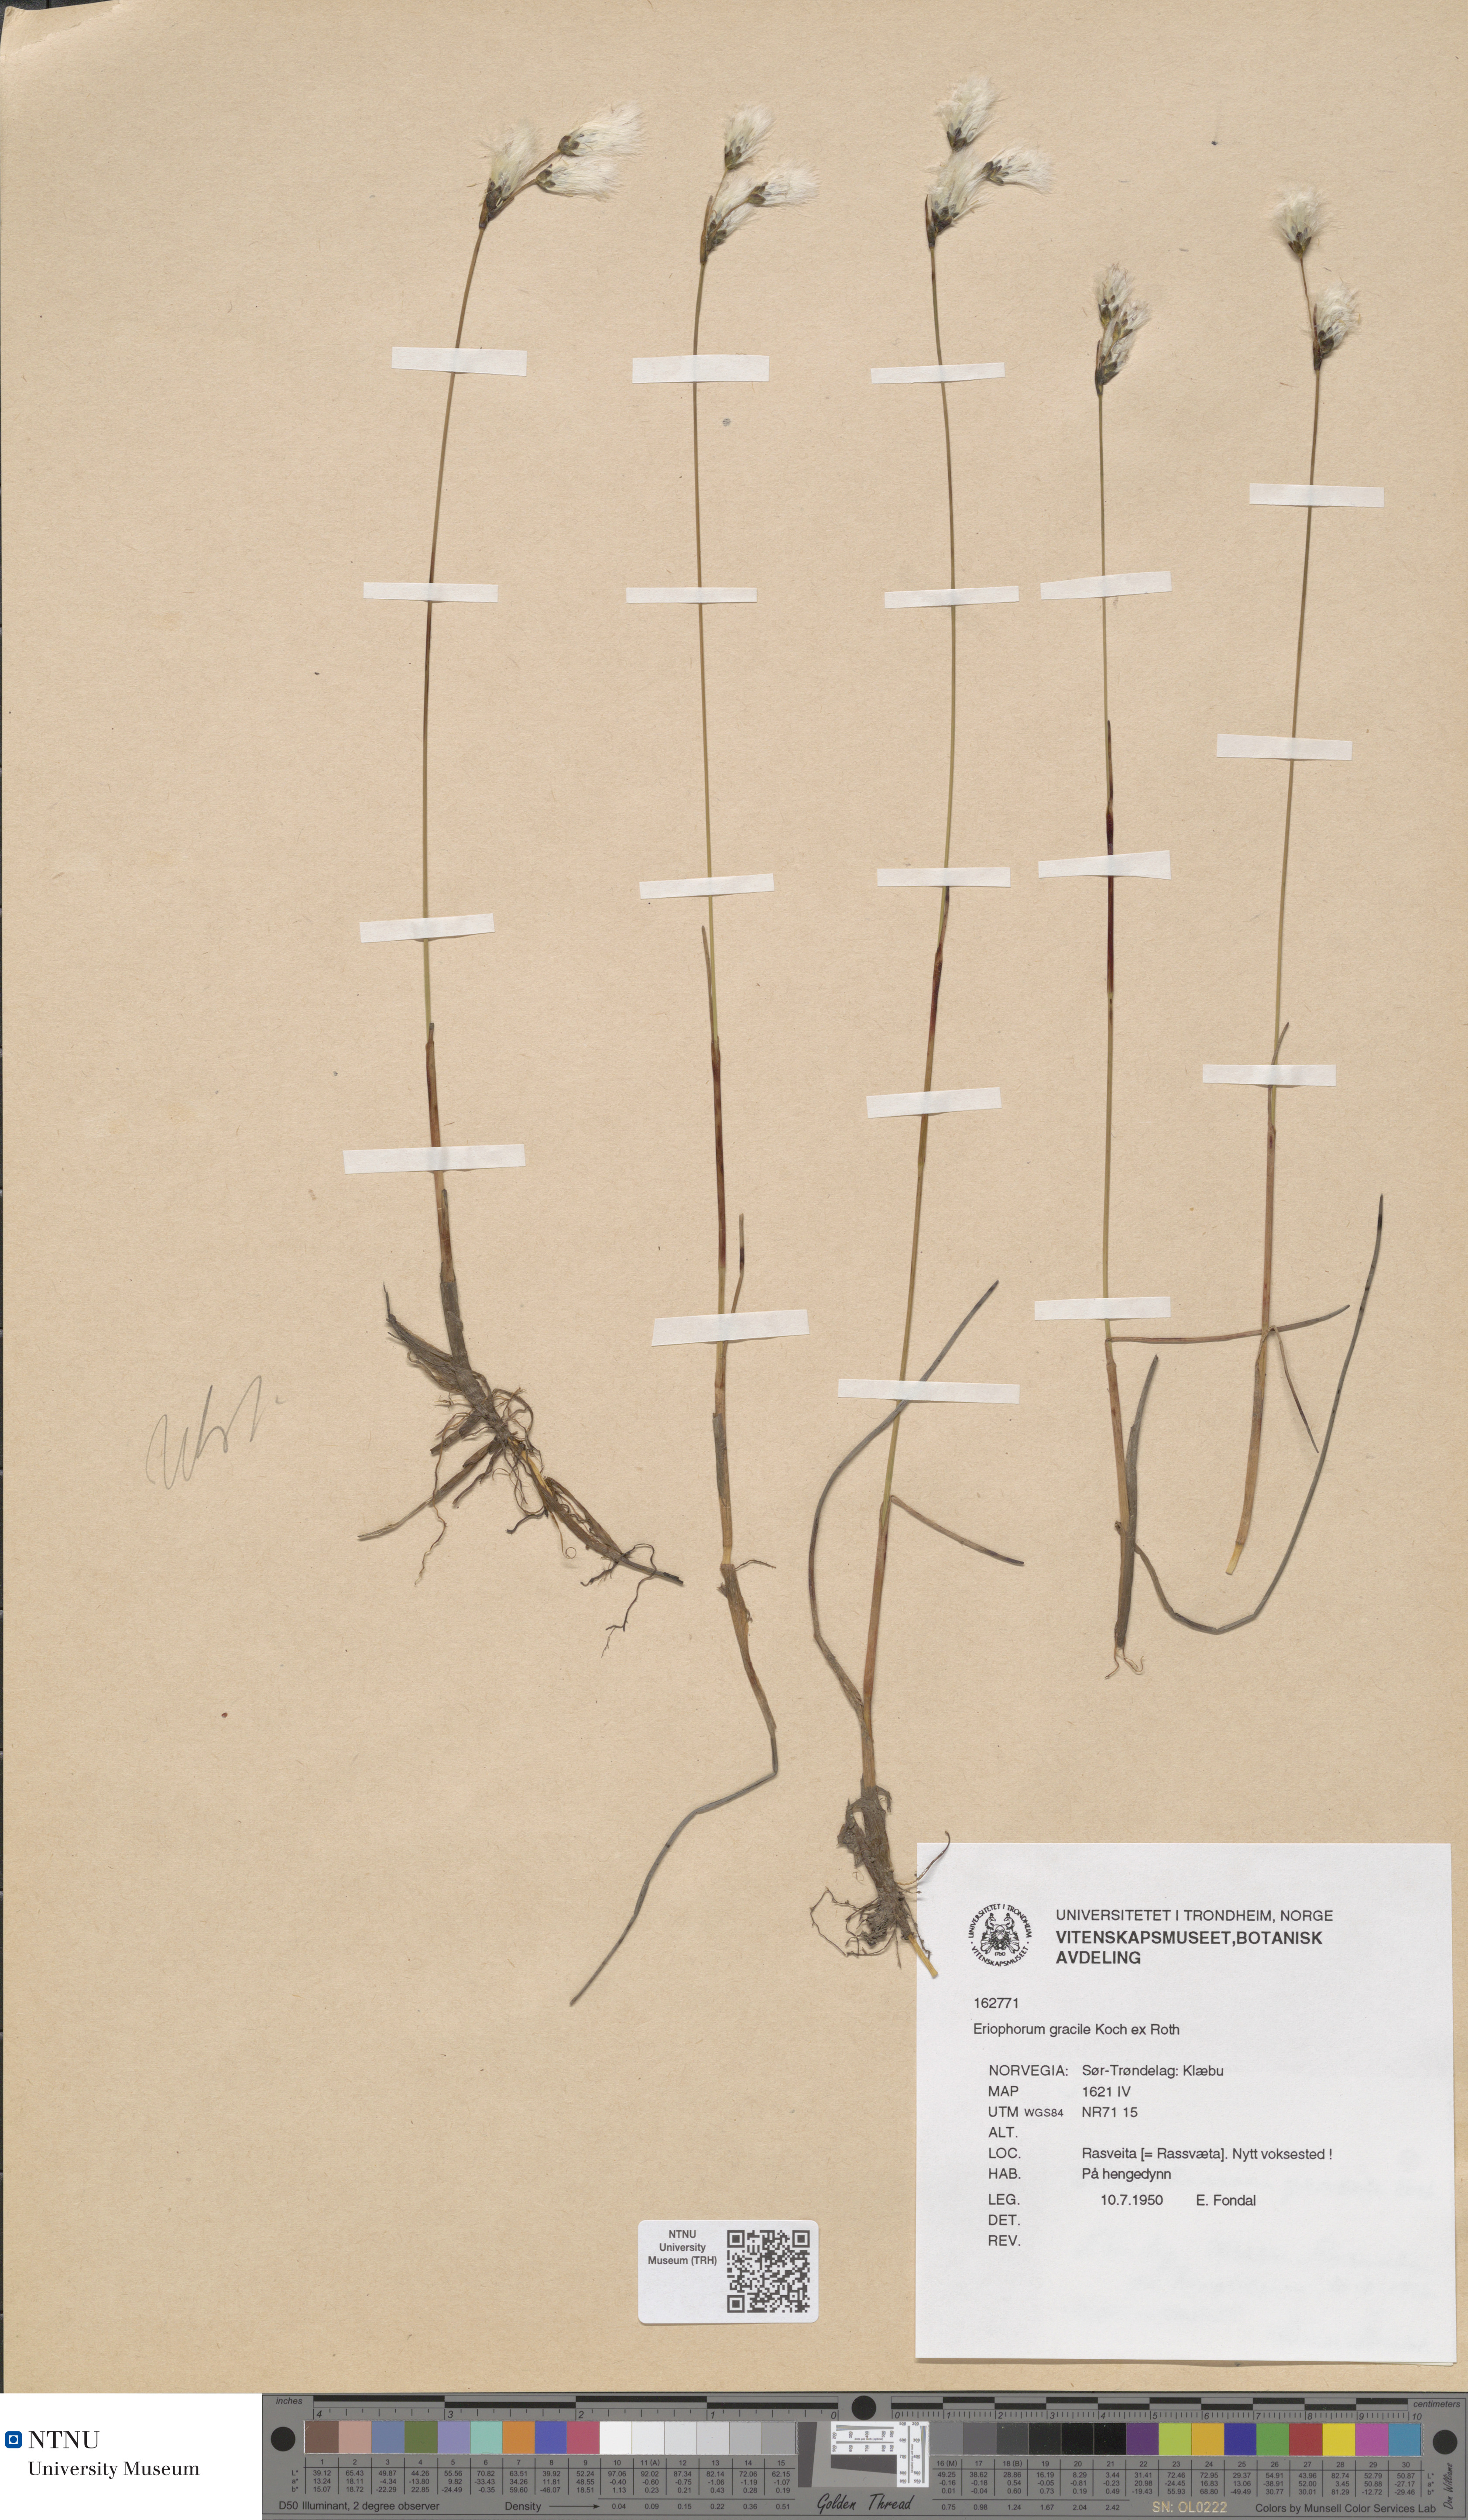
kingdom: Plantae
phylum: Tracheophyta
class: Liliopsida
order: Poales
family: Cyperaceae
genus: Eriophorum
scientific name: Eriophorum gracile
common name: Slender cottongrass
